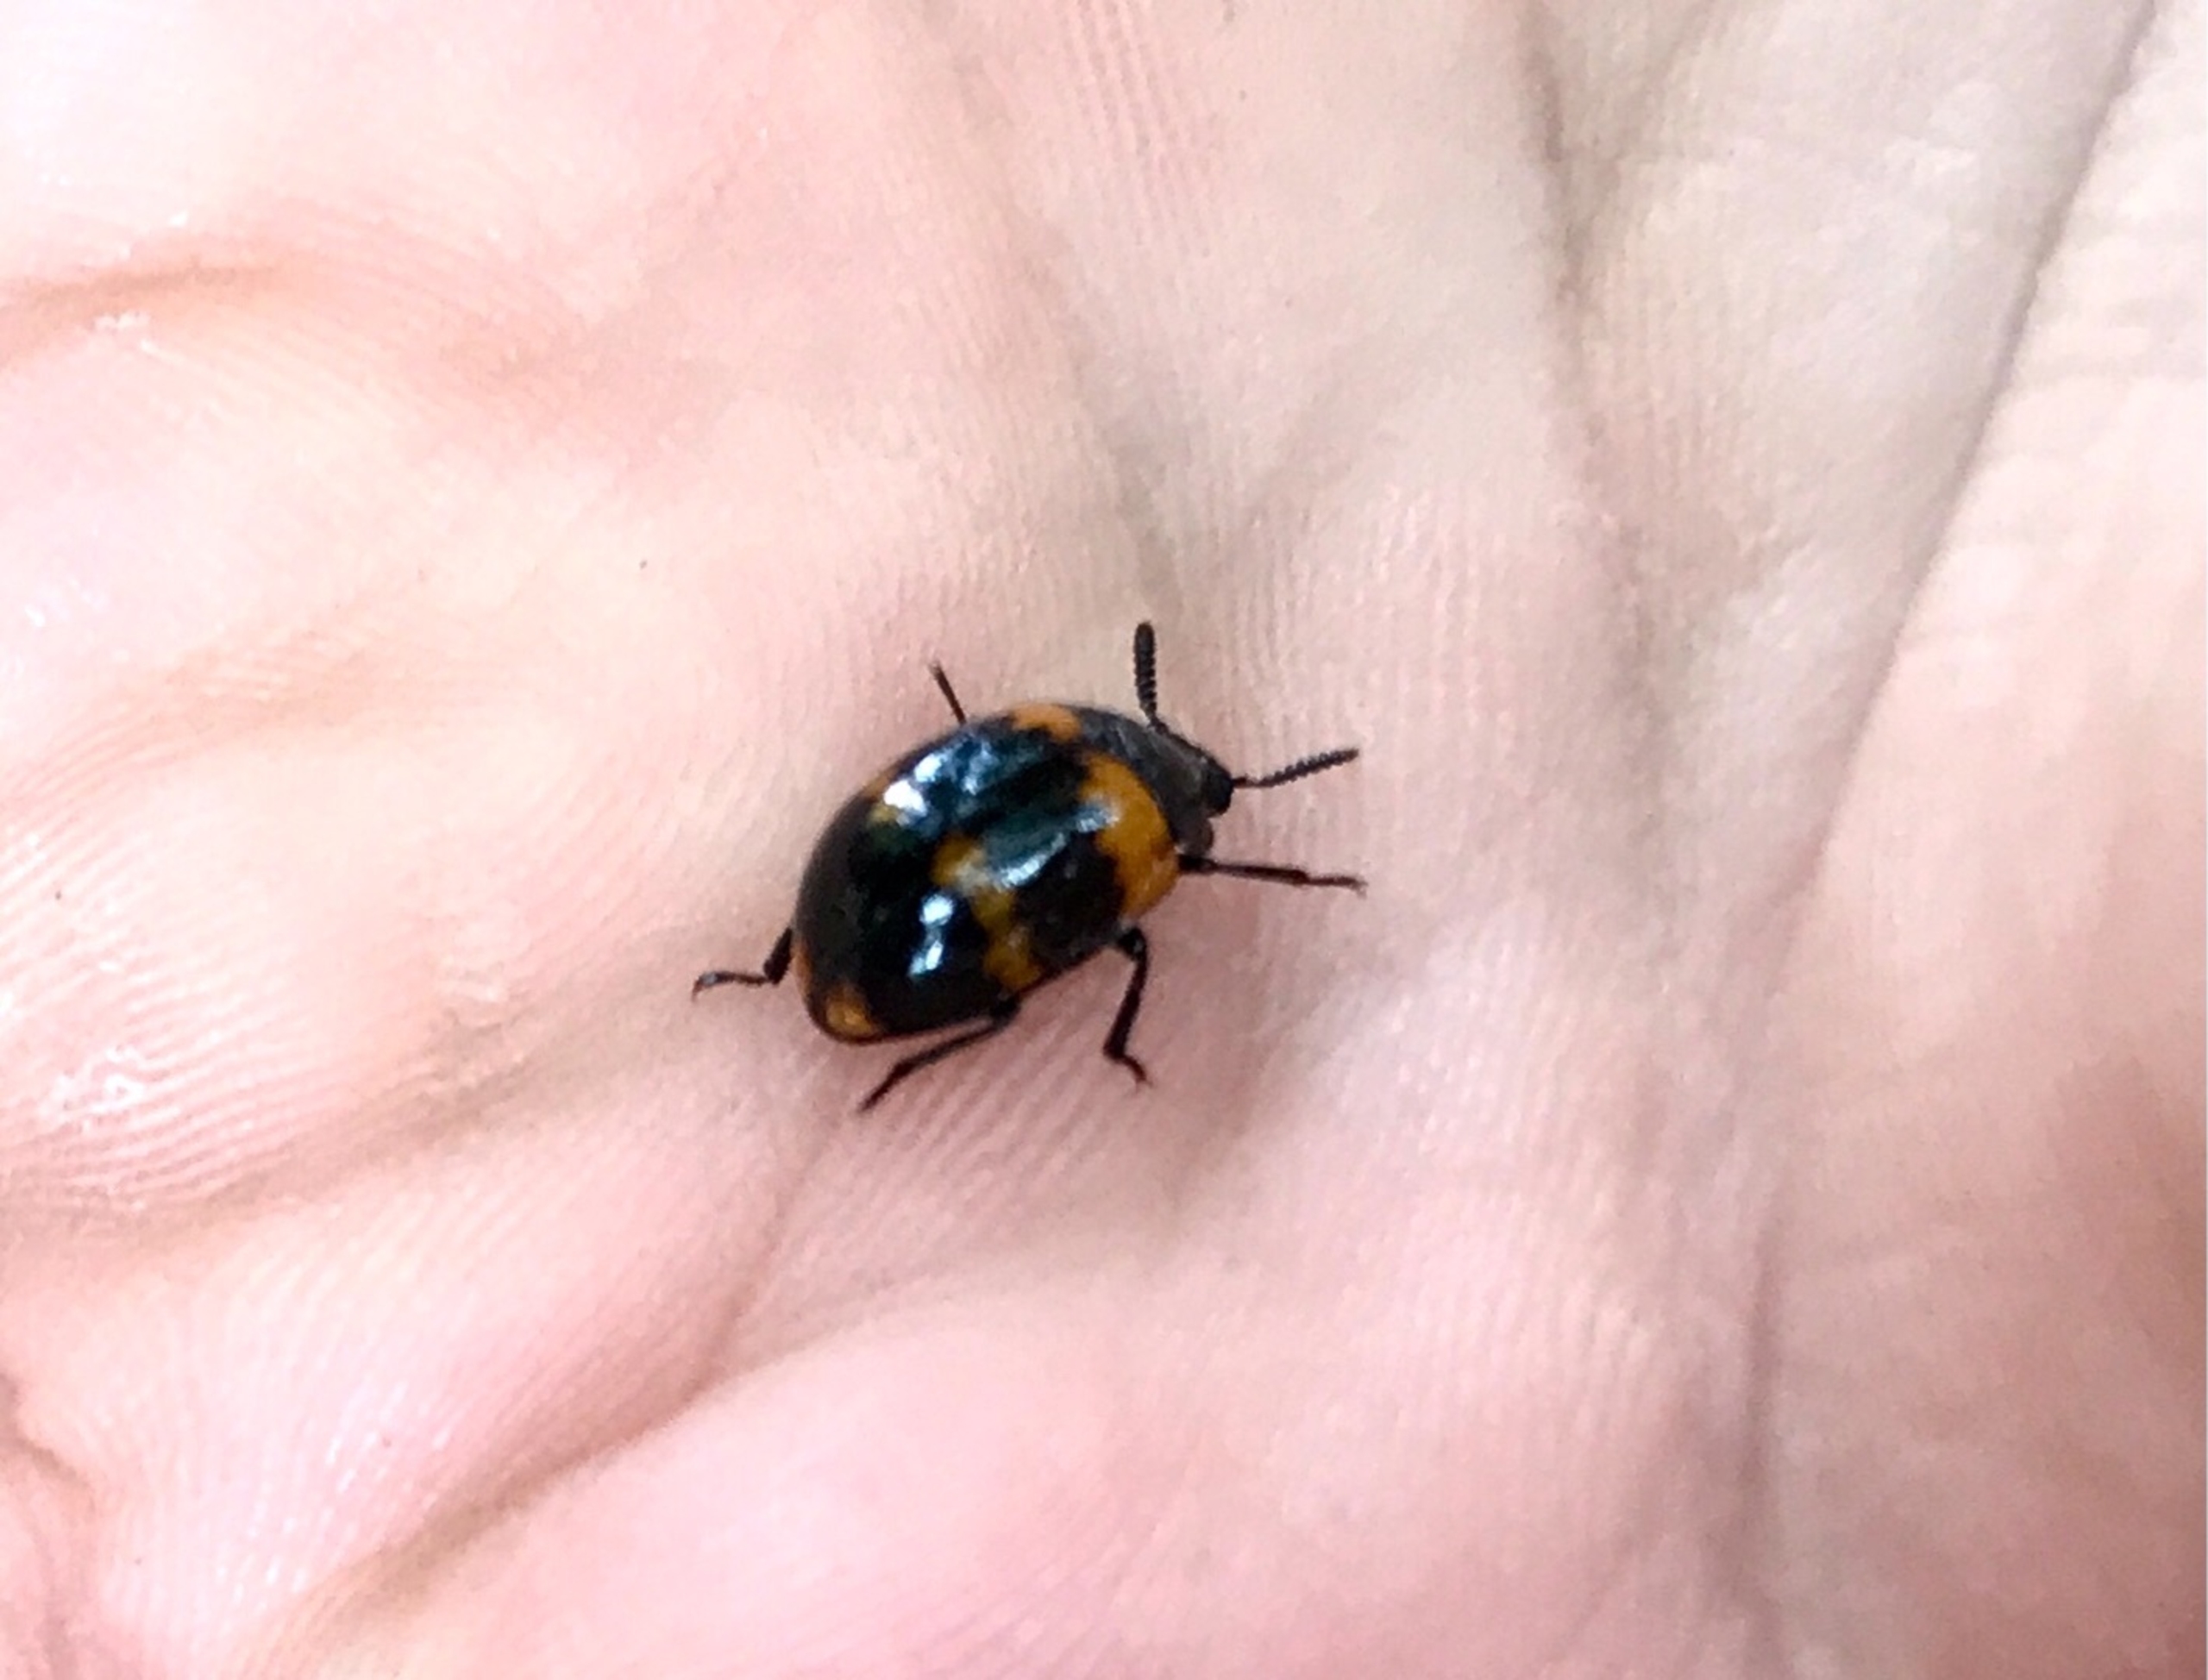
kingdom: Animalia
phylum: Arthropoda
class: Insecta
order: Coleoptera
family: Tenebrionidae
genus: Diaperis
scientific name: Diaperis boleti
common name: Tigerskyggebille
